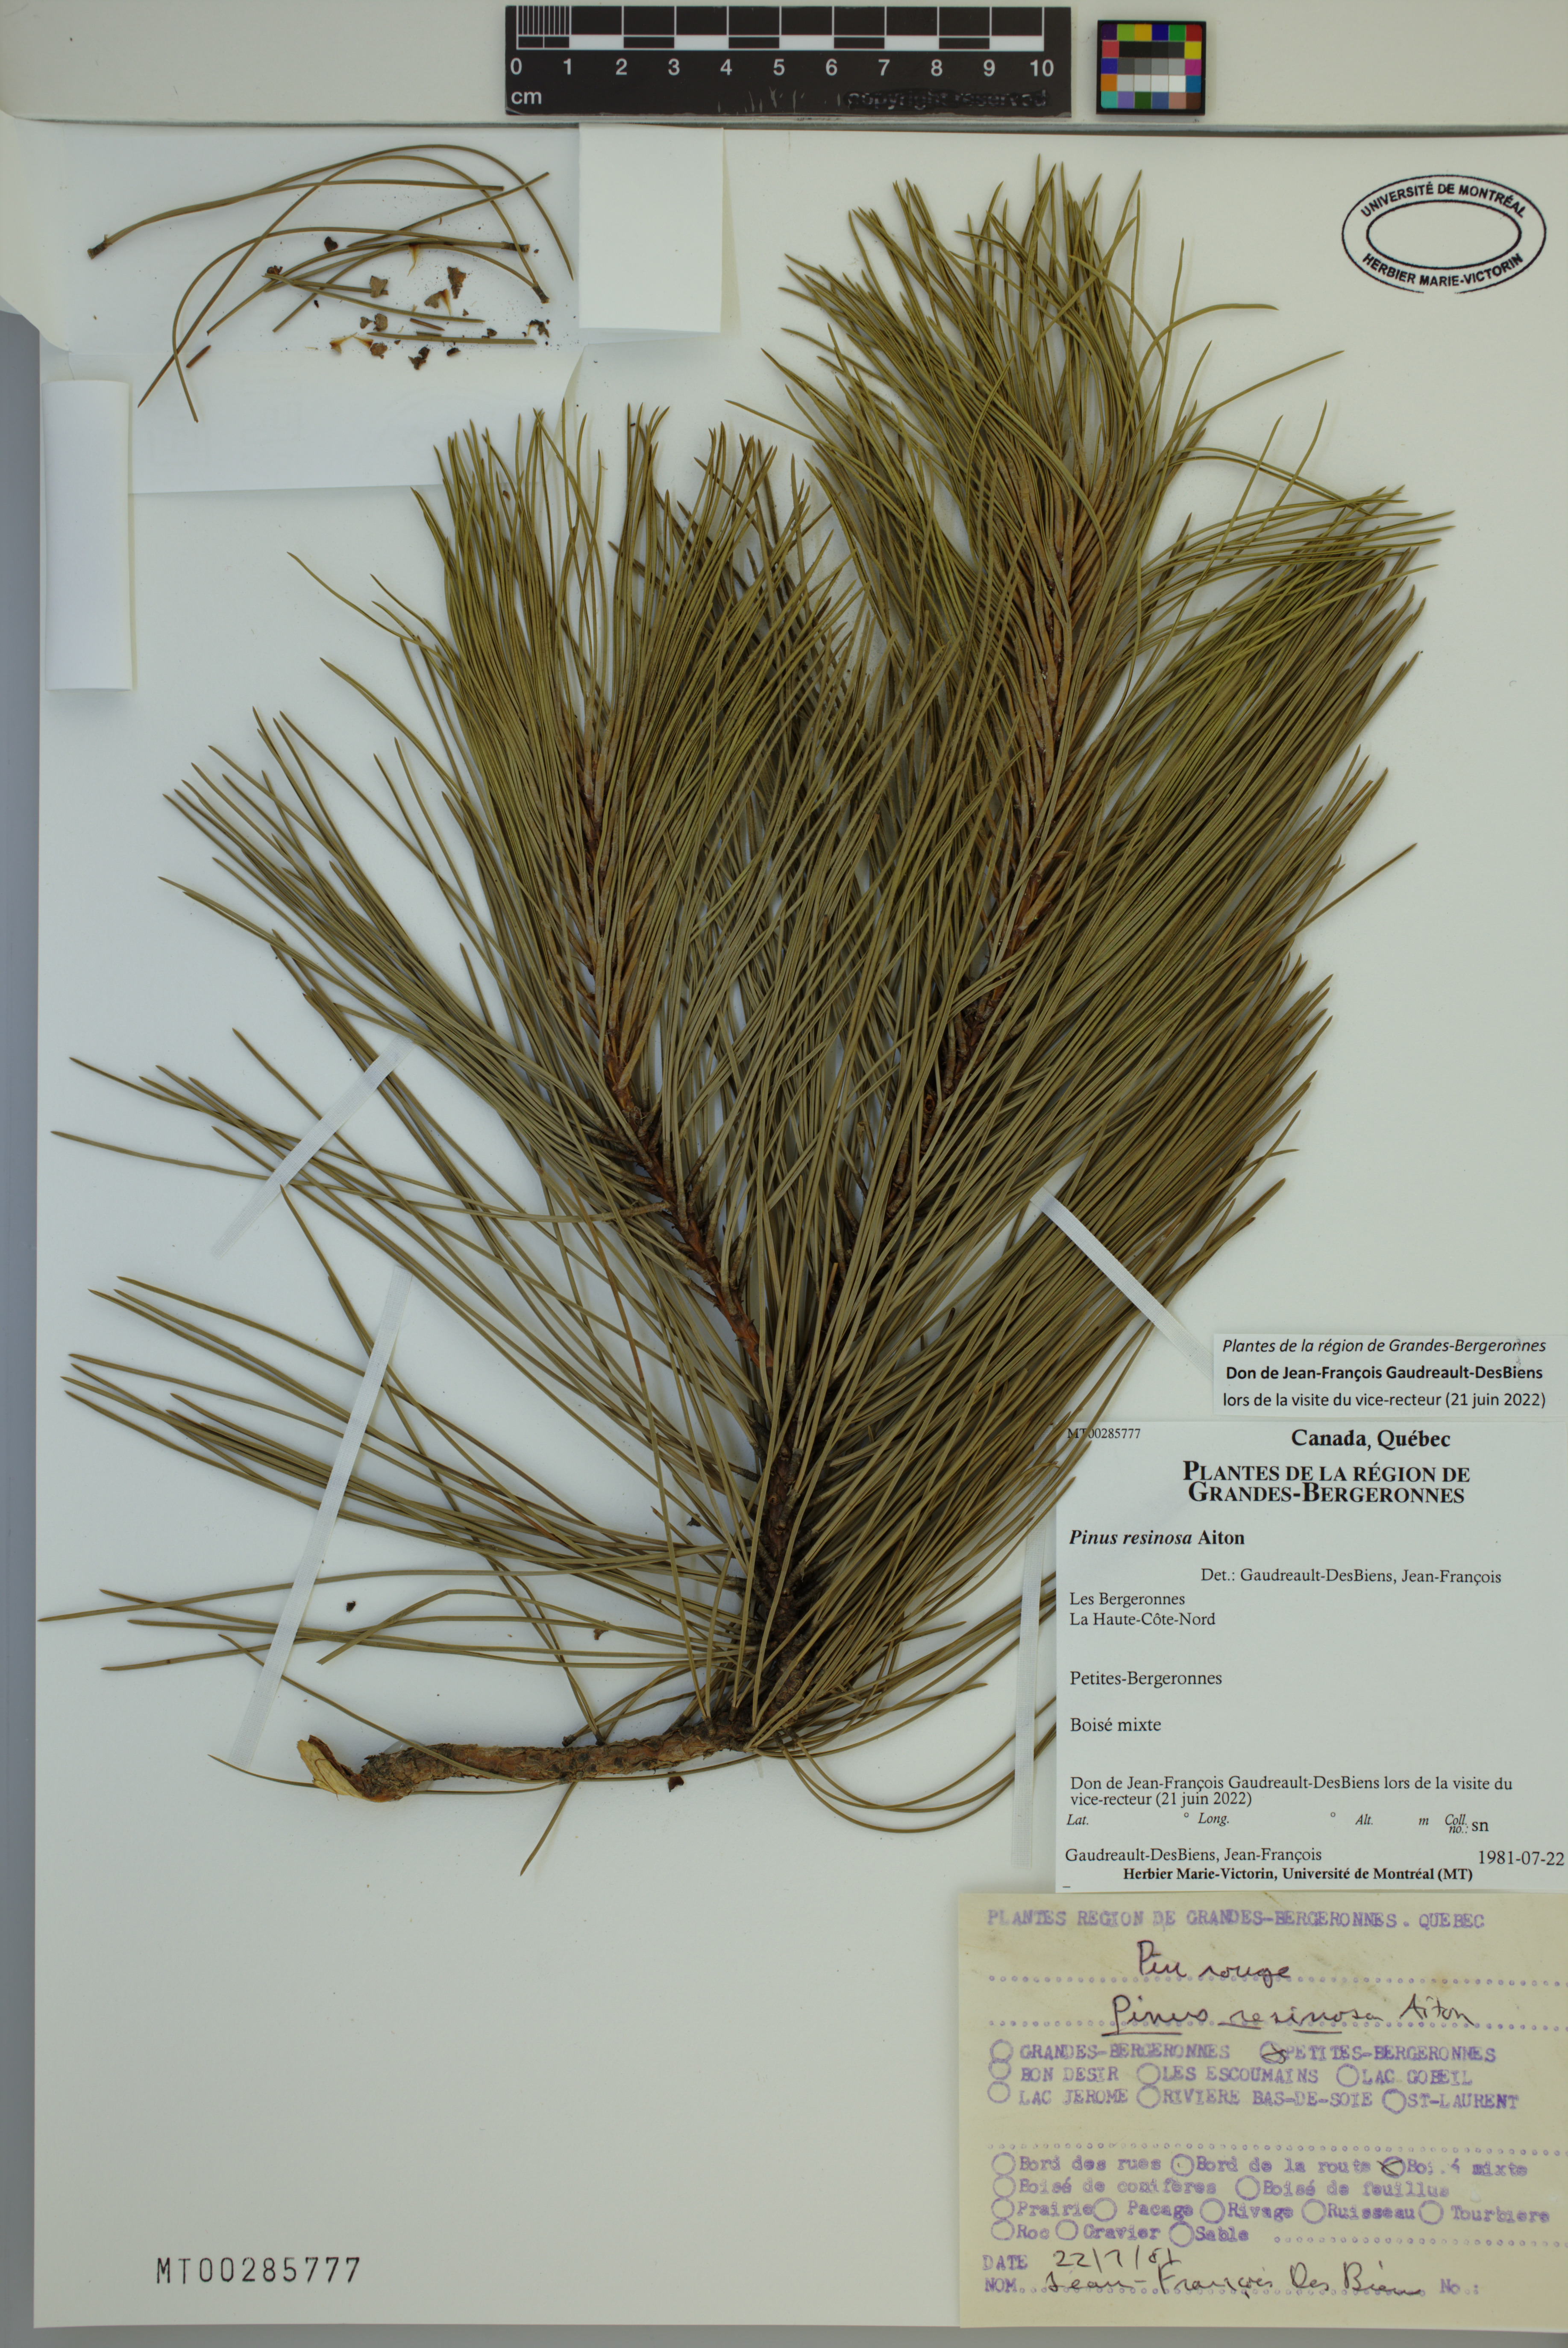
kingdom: Plantae
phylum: Tracheophyta
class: Pinopsida
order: Pinales
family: Pinaceae
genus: Pinus
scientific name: Pinus resinosa
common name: Norway pine
